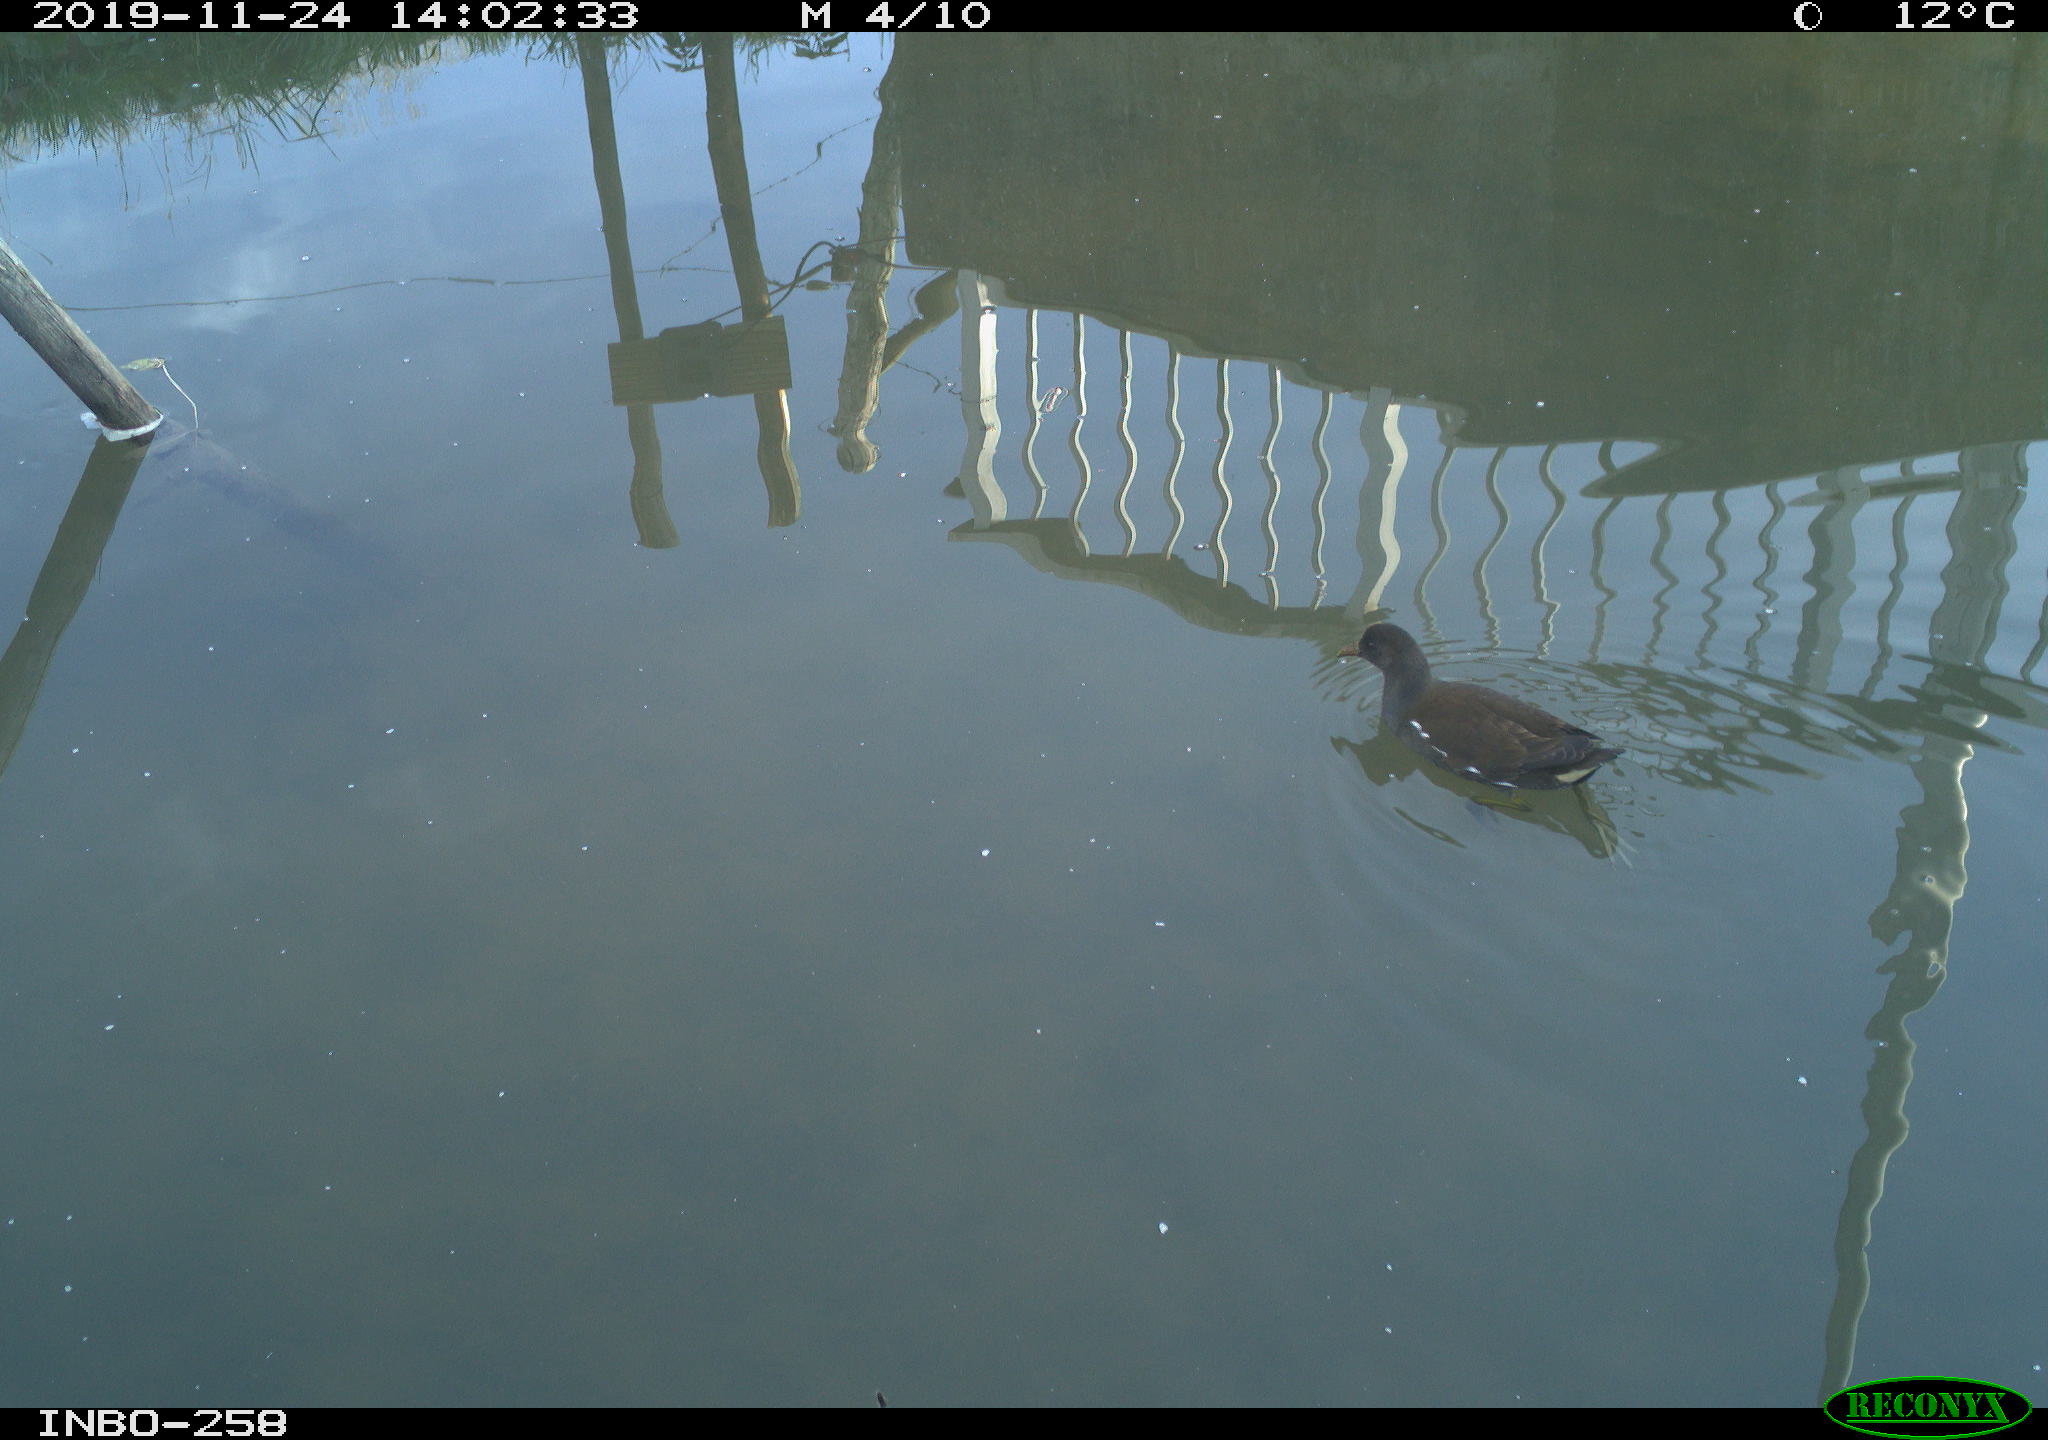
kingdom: Animalia
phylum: Chordata
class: Aves
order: Gruiformes
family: Rallidae
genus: Gallinula
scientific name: Gallinula chloropus
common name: Common moorhen
